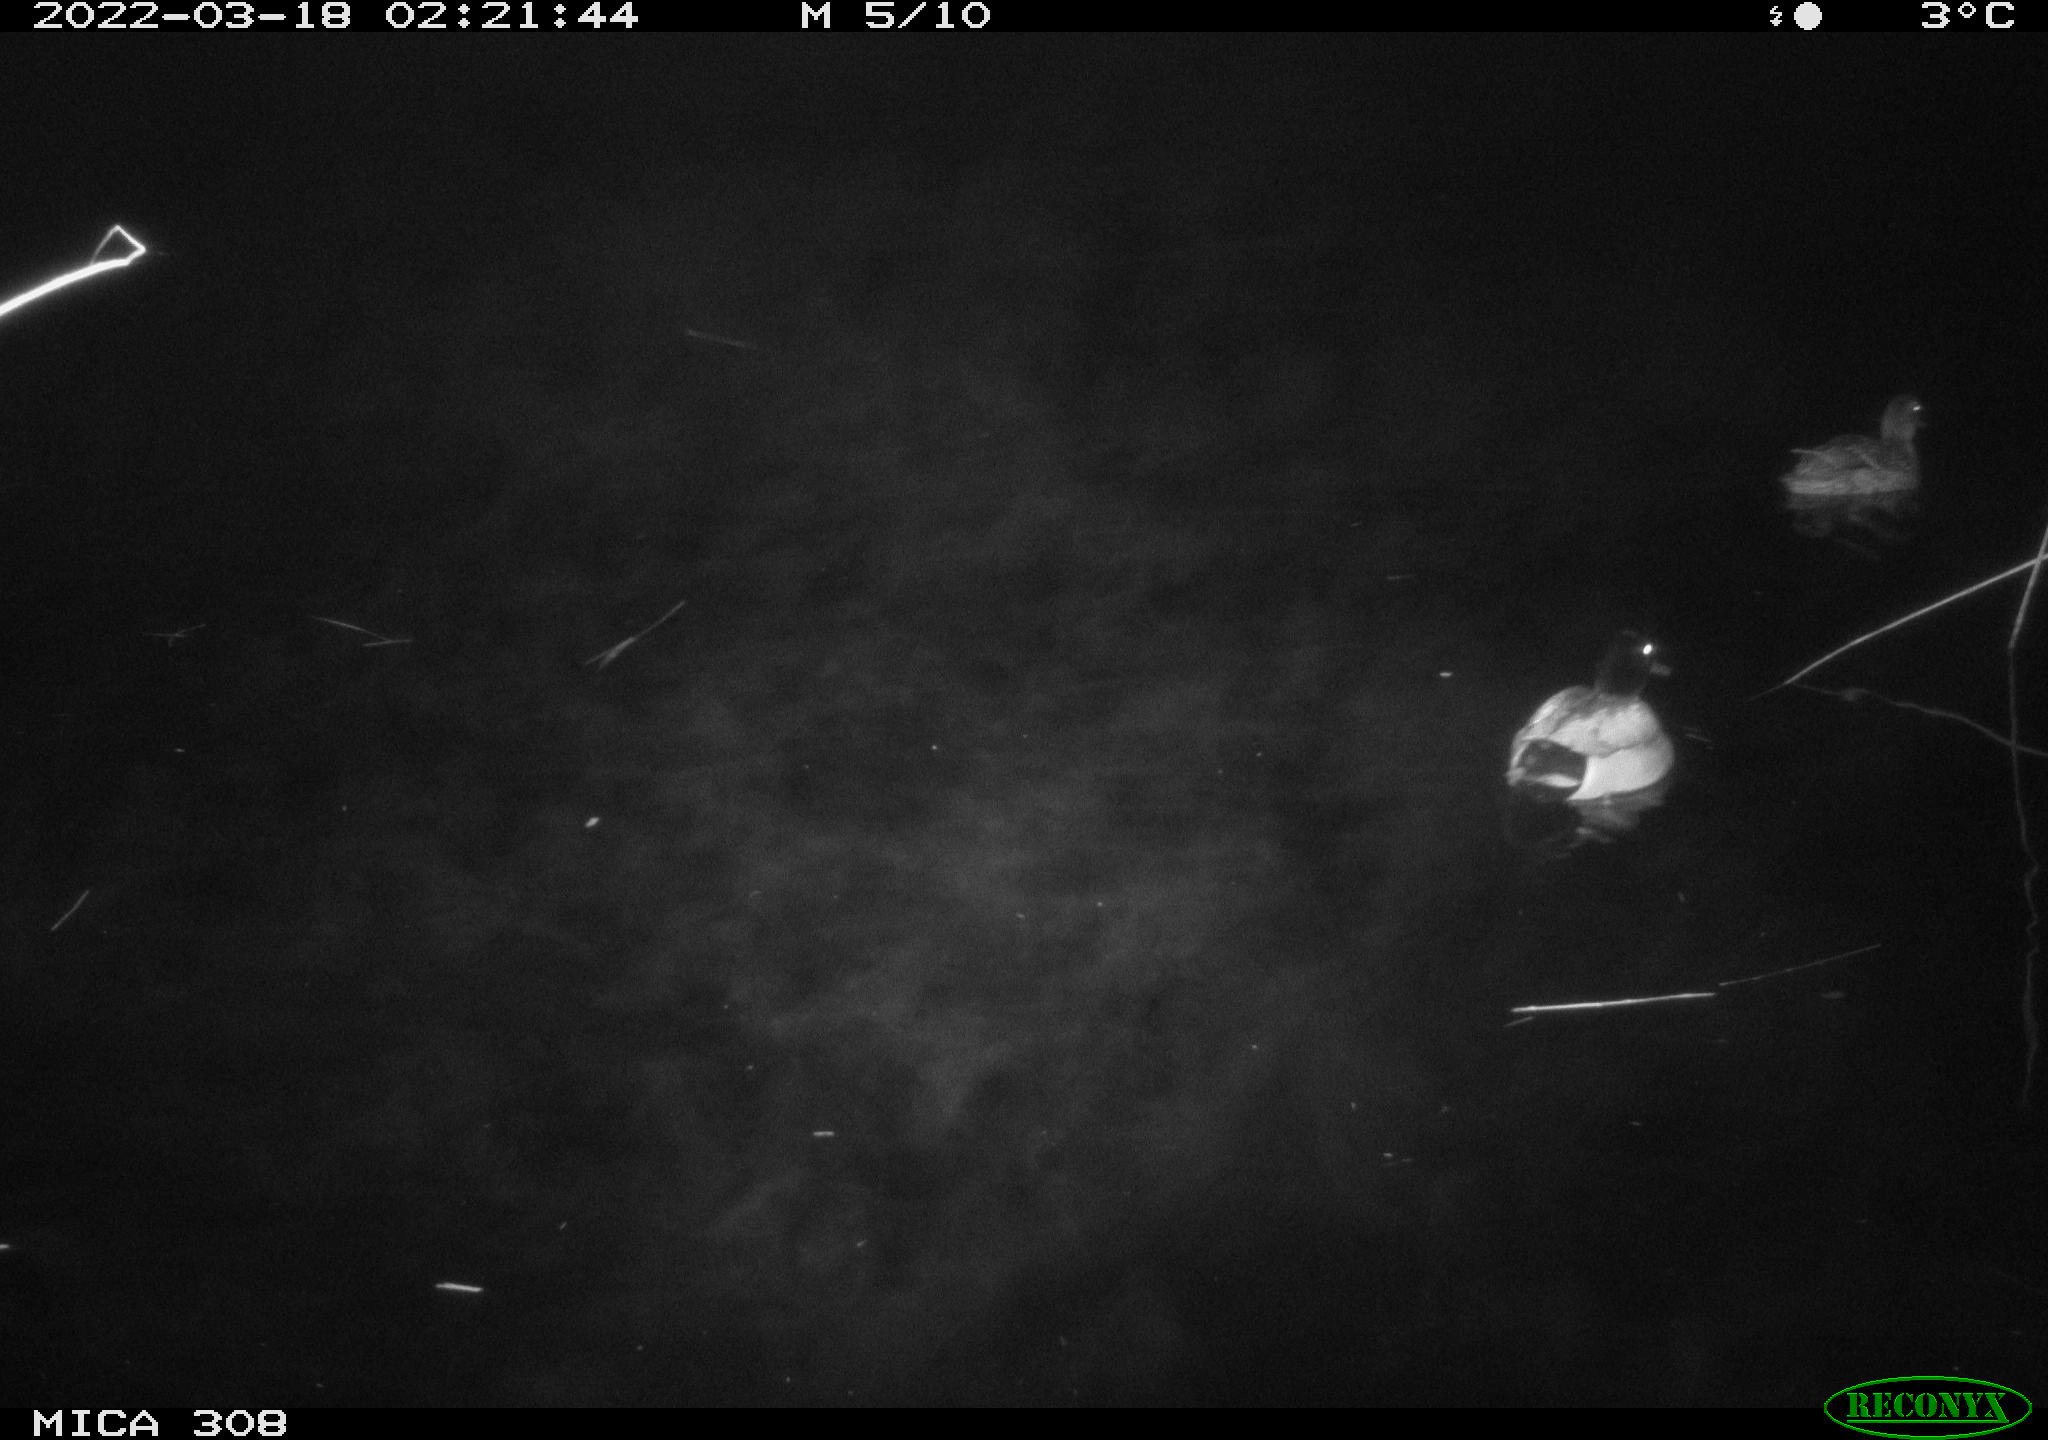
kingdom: Animalia
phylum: Chordata
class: Aves
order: Anseriformes
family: Anatidae
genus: Anas
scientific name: Anas platyrhynchos
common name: Mallard
